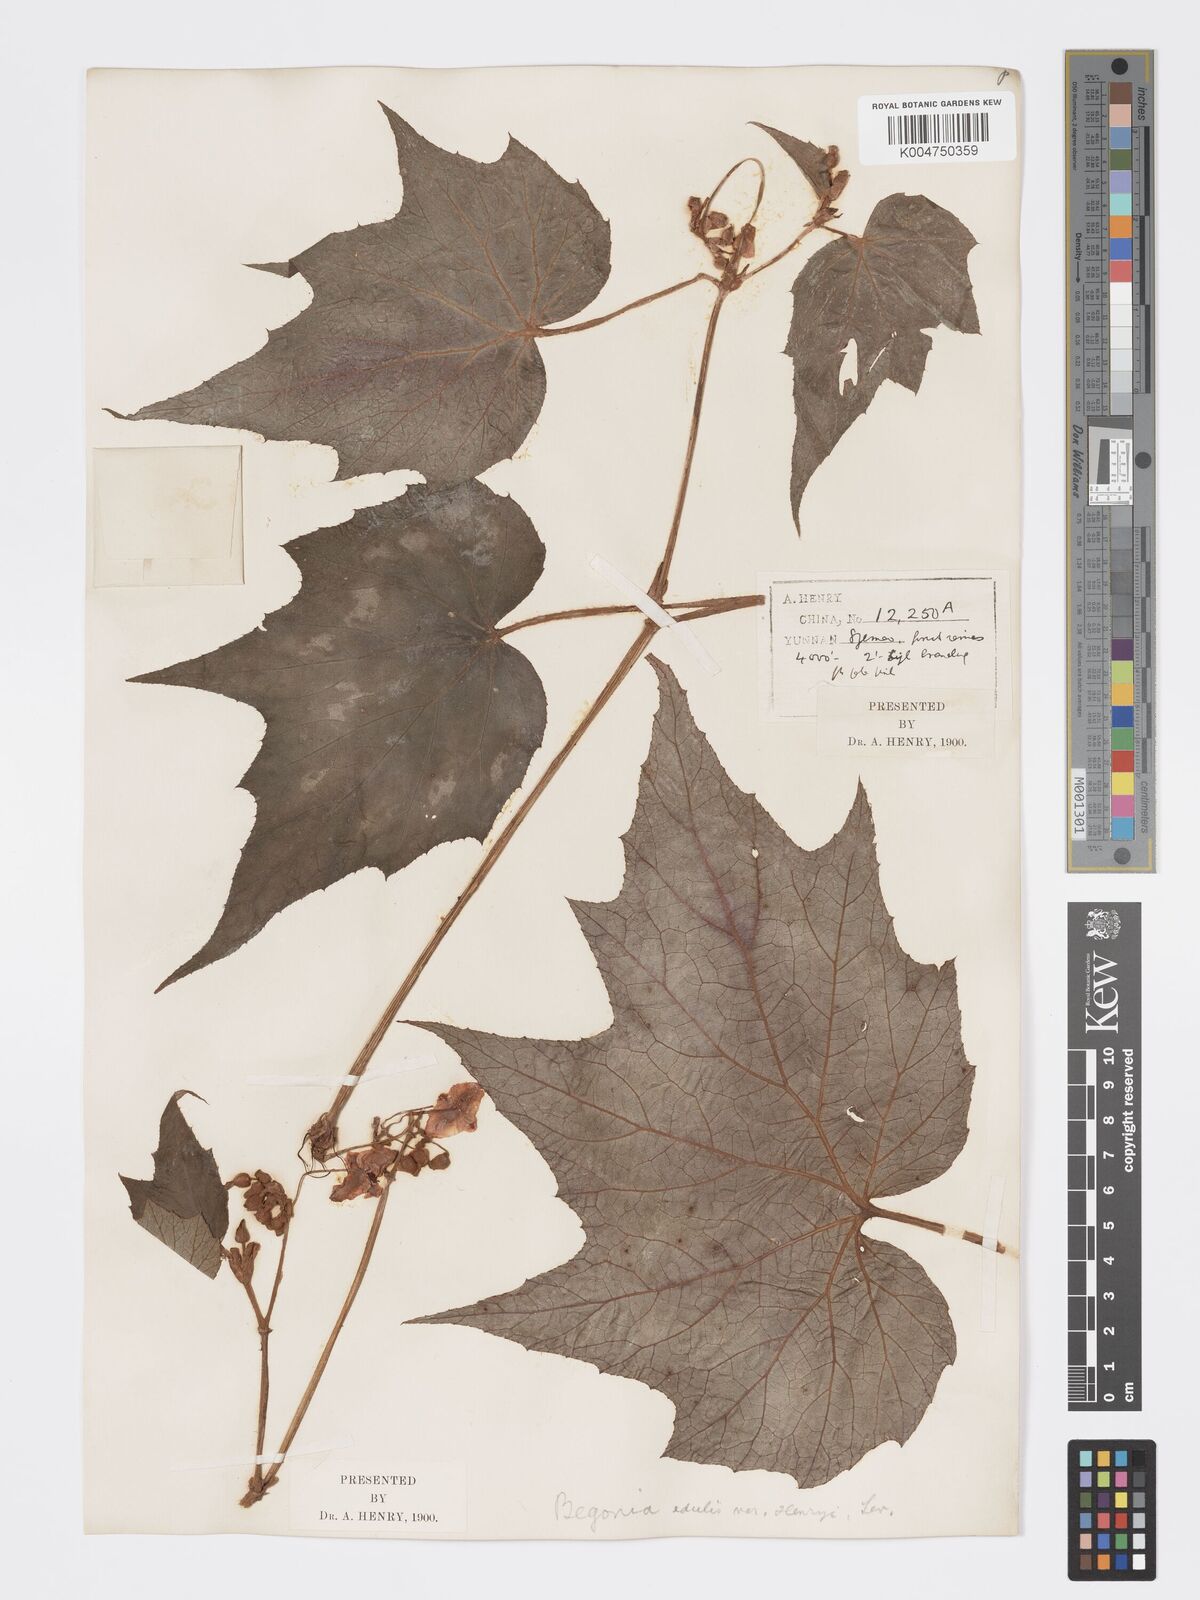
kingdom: Plantae
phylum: Tracheophyta
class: Magnoliopsida
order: Cucurbitales
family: Begoniaceae
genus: Begonia
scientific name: Begonia palmata
